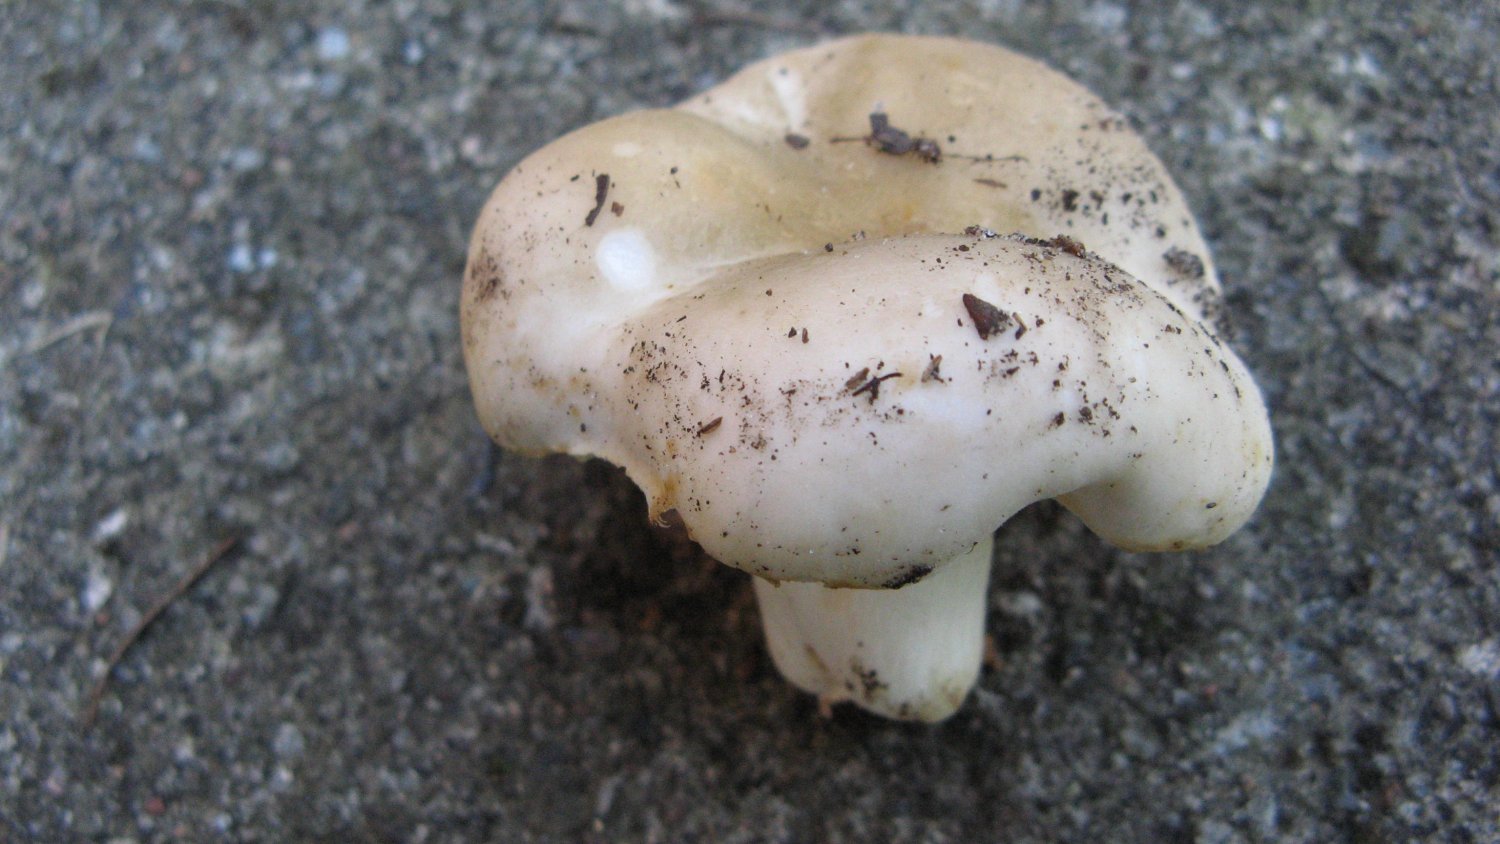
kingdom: Fungi
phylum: Basidiomycota
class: Agaricomycetes
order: Russulales
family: Russulaceae
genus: Russula
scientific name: Russula grisea
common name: grålig skørhat
